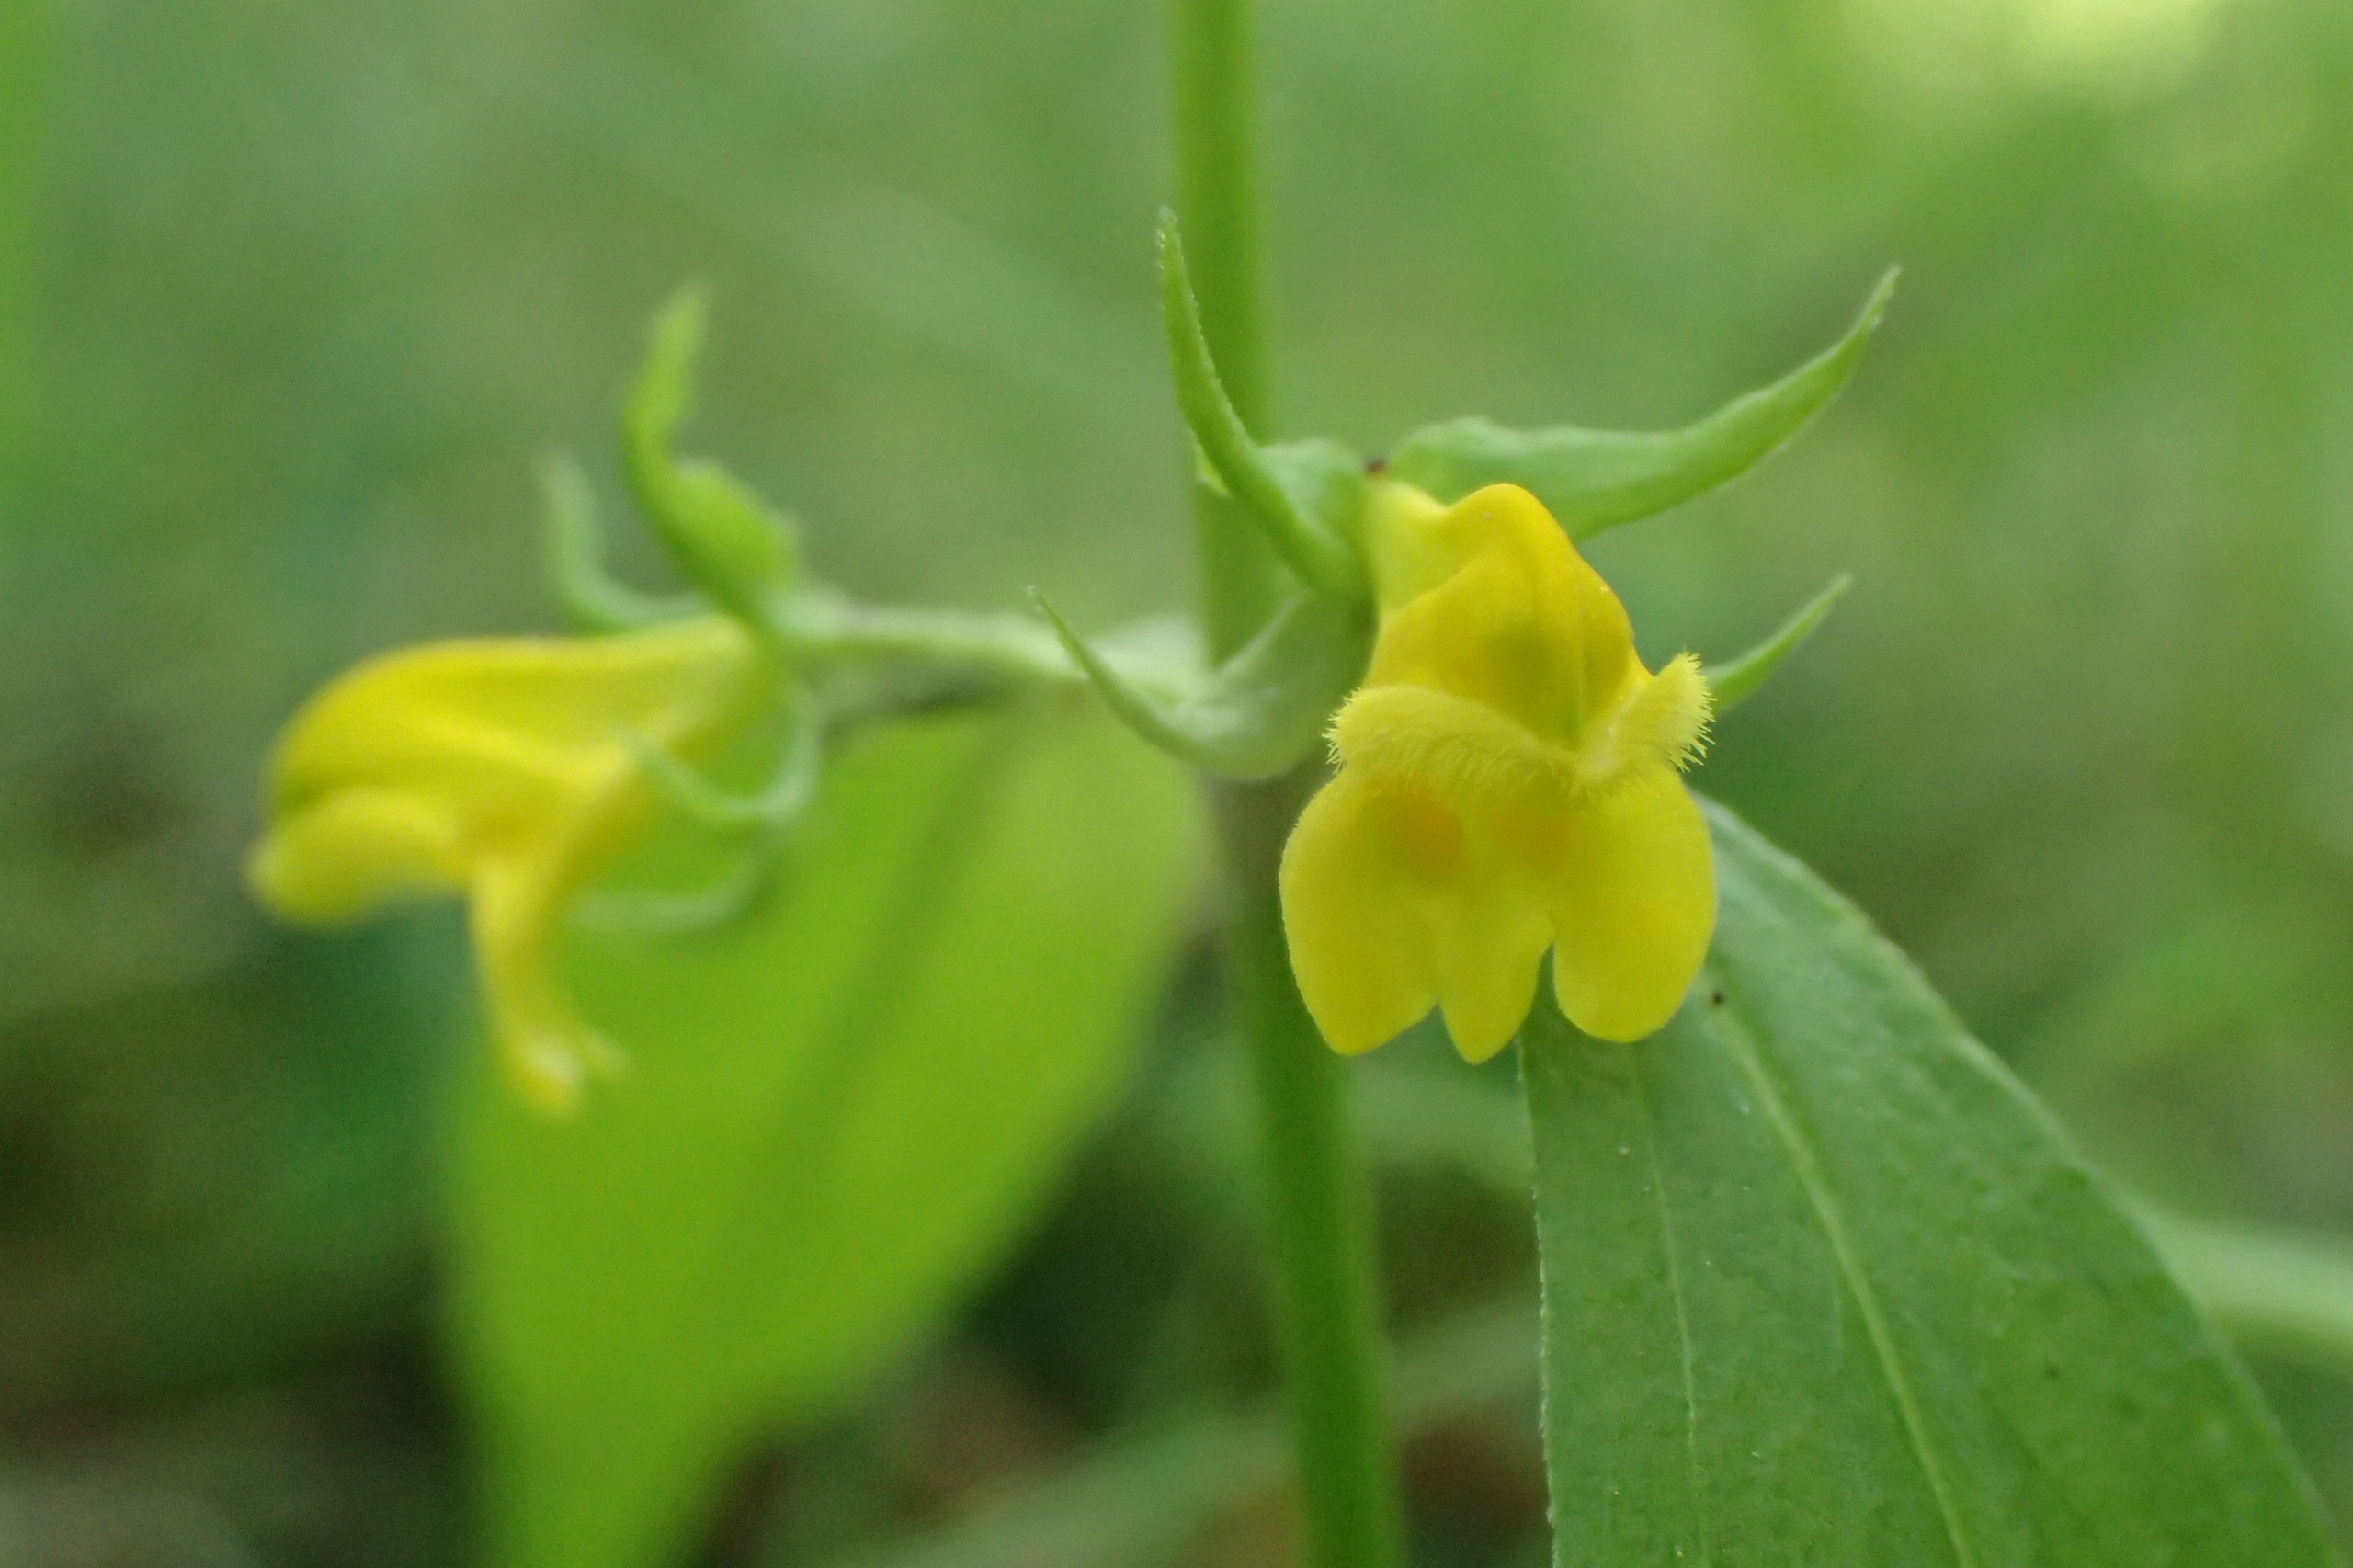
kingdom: Plantae
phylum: Tracheophyta
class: Magnoliopsida
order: Lamiales
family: Orobanchaceae
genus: Melampyrum
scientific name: Melampyrum sylvaticum
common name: Skov-kohvede
